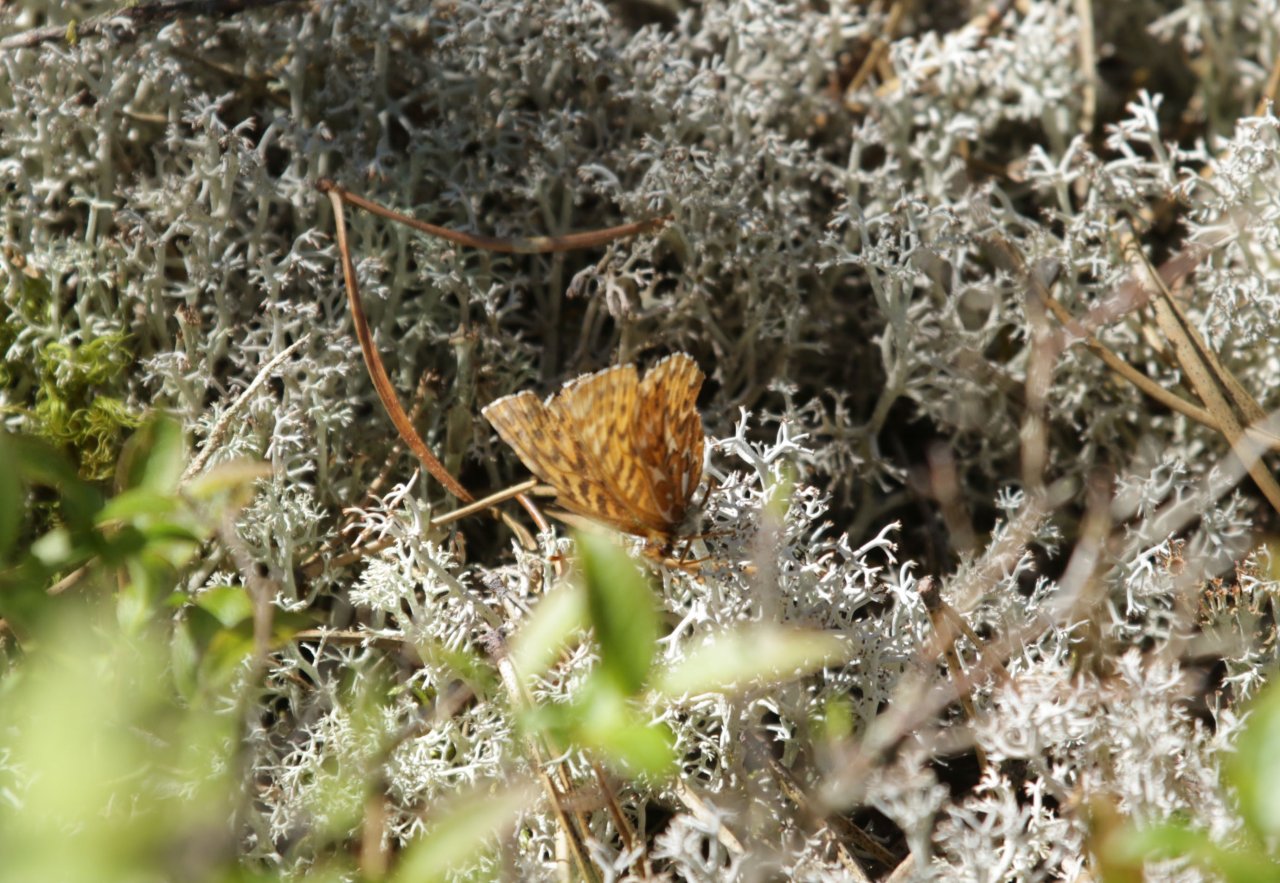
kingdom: Animalia
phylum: Arthropoda
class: Insecta
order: Lepidoptera
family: Nymphalidae
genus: Boloria
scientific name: Boloria freija
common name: Freija Fritillary
